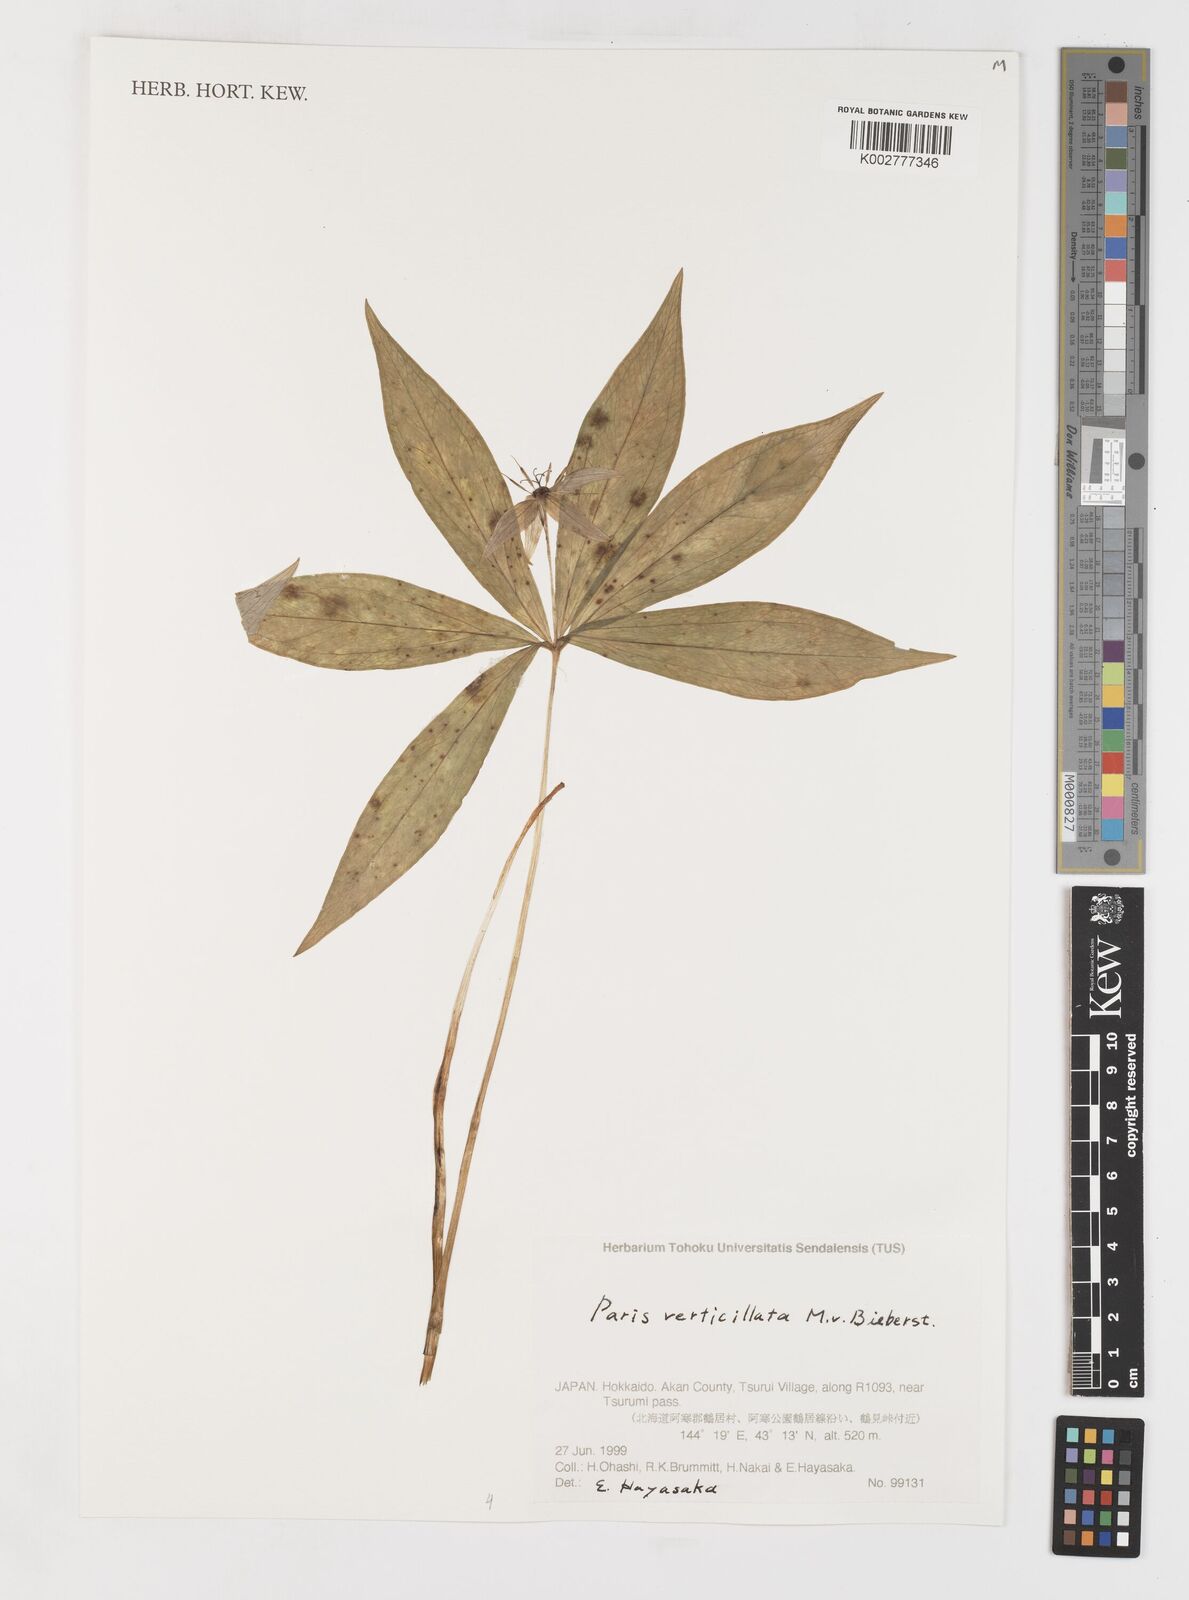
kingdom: Plantae
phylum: Tracheophyta
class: Liliopsida
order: Liliales
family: Melanthiaceae
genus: Paris
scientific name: Paris verticillata
